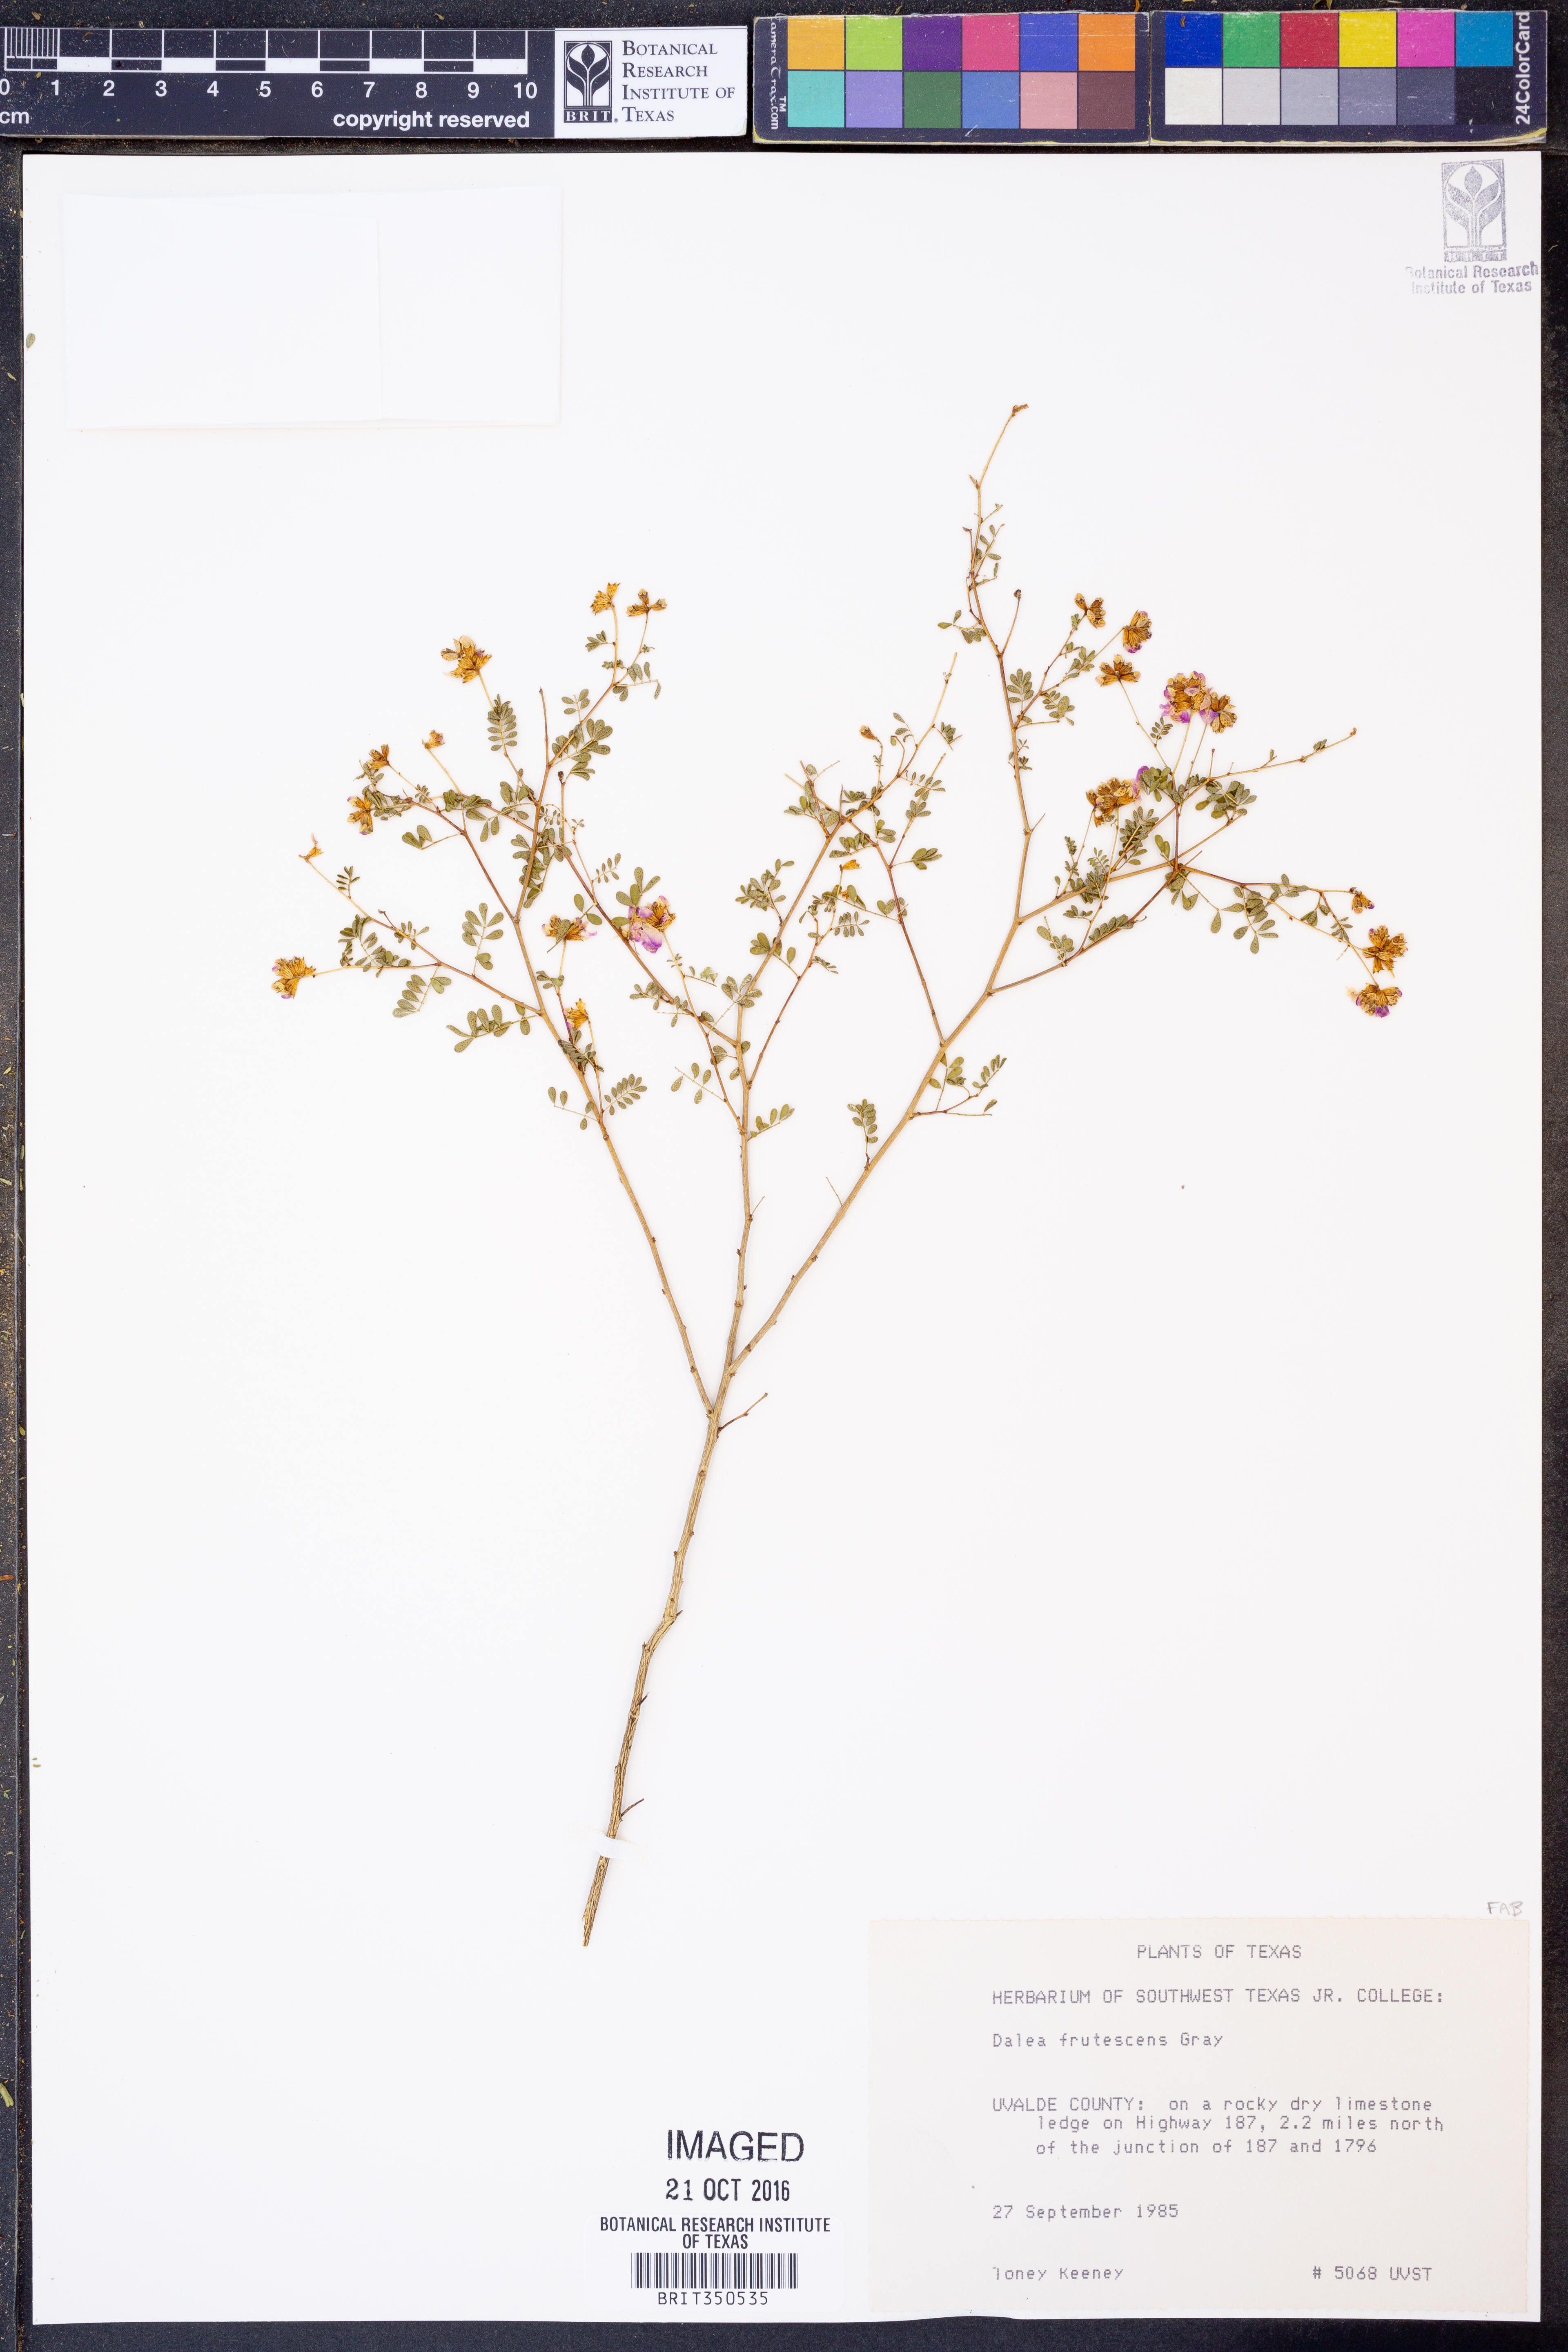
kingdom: Plantae
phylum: Tracheophyta
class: Magnoliopsida
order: Fabales
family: Fabaceae
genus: Dalea
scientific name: Dalea frutescens
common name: Black dalea
